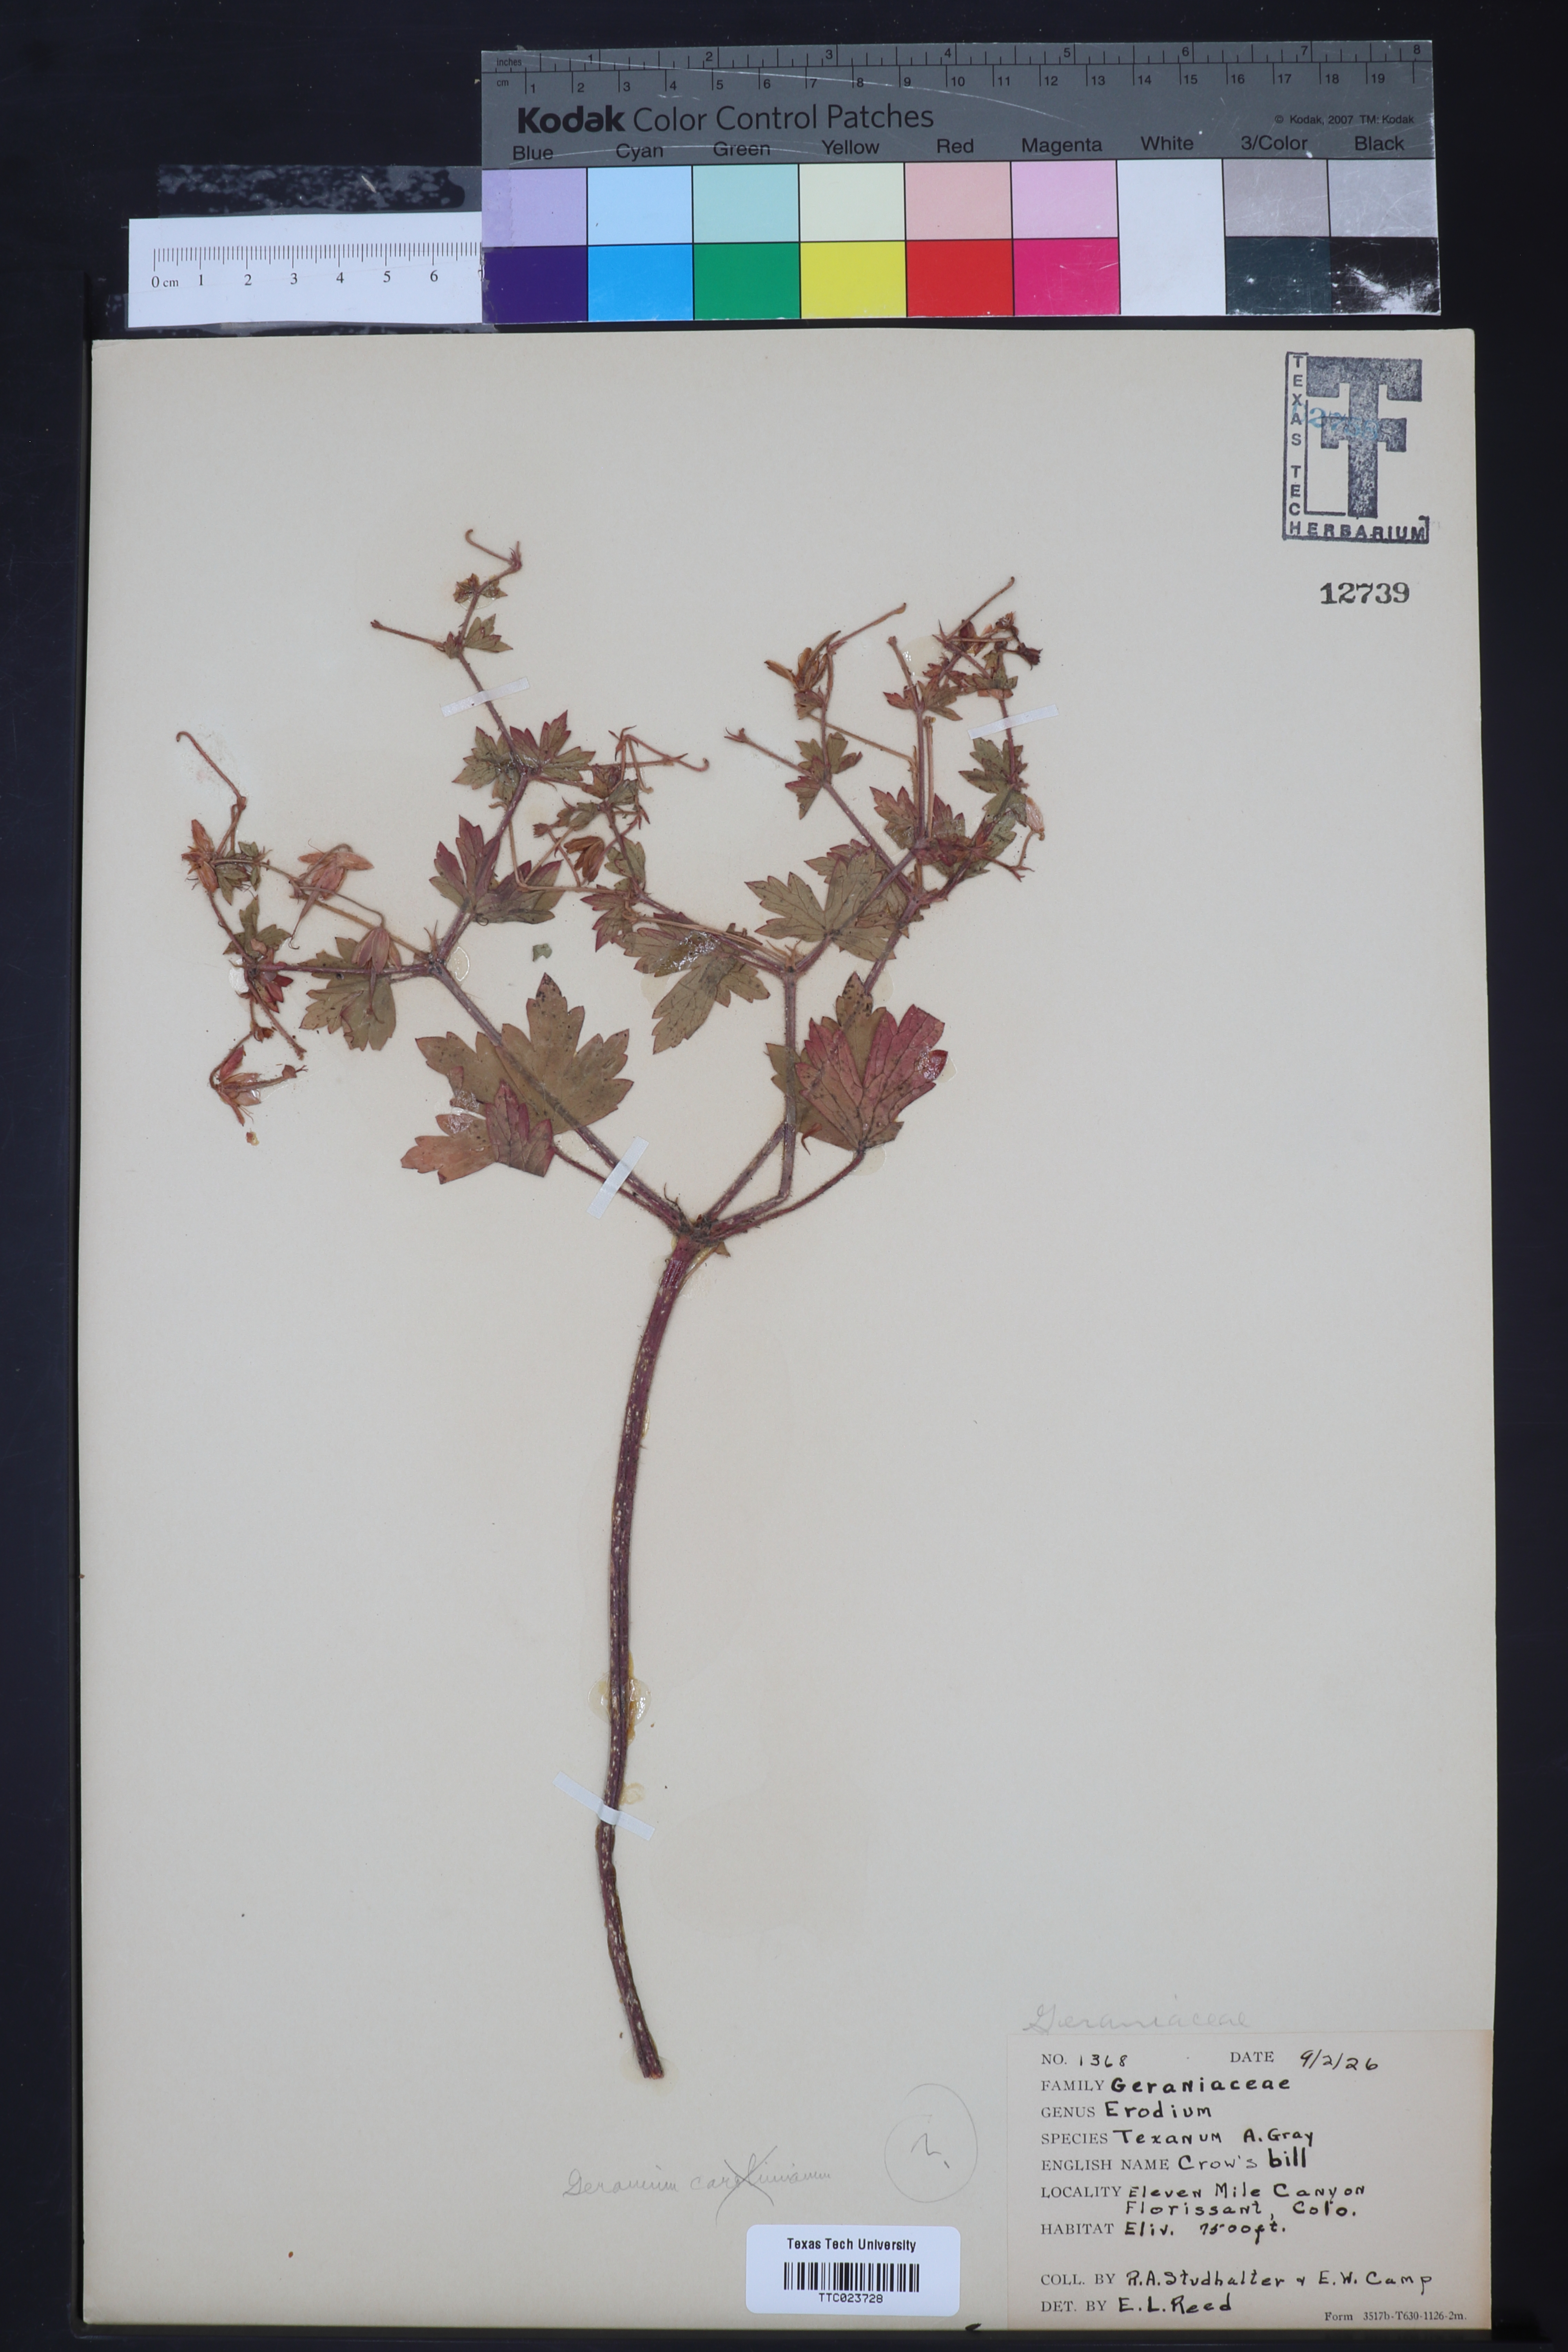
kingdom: Plantae
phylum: Tracheophyta
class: Magnoliopsida
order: Geraniales
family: Geraniaceae
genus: Erodium
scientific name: Erodium texanum
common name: Texas stork's-bill
